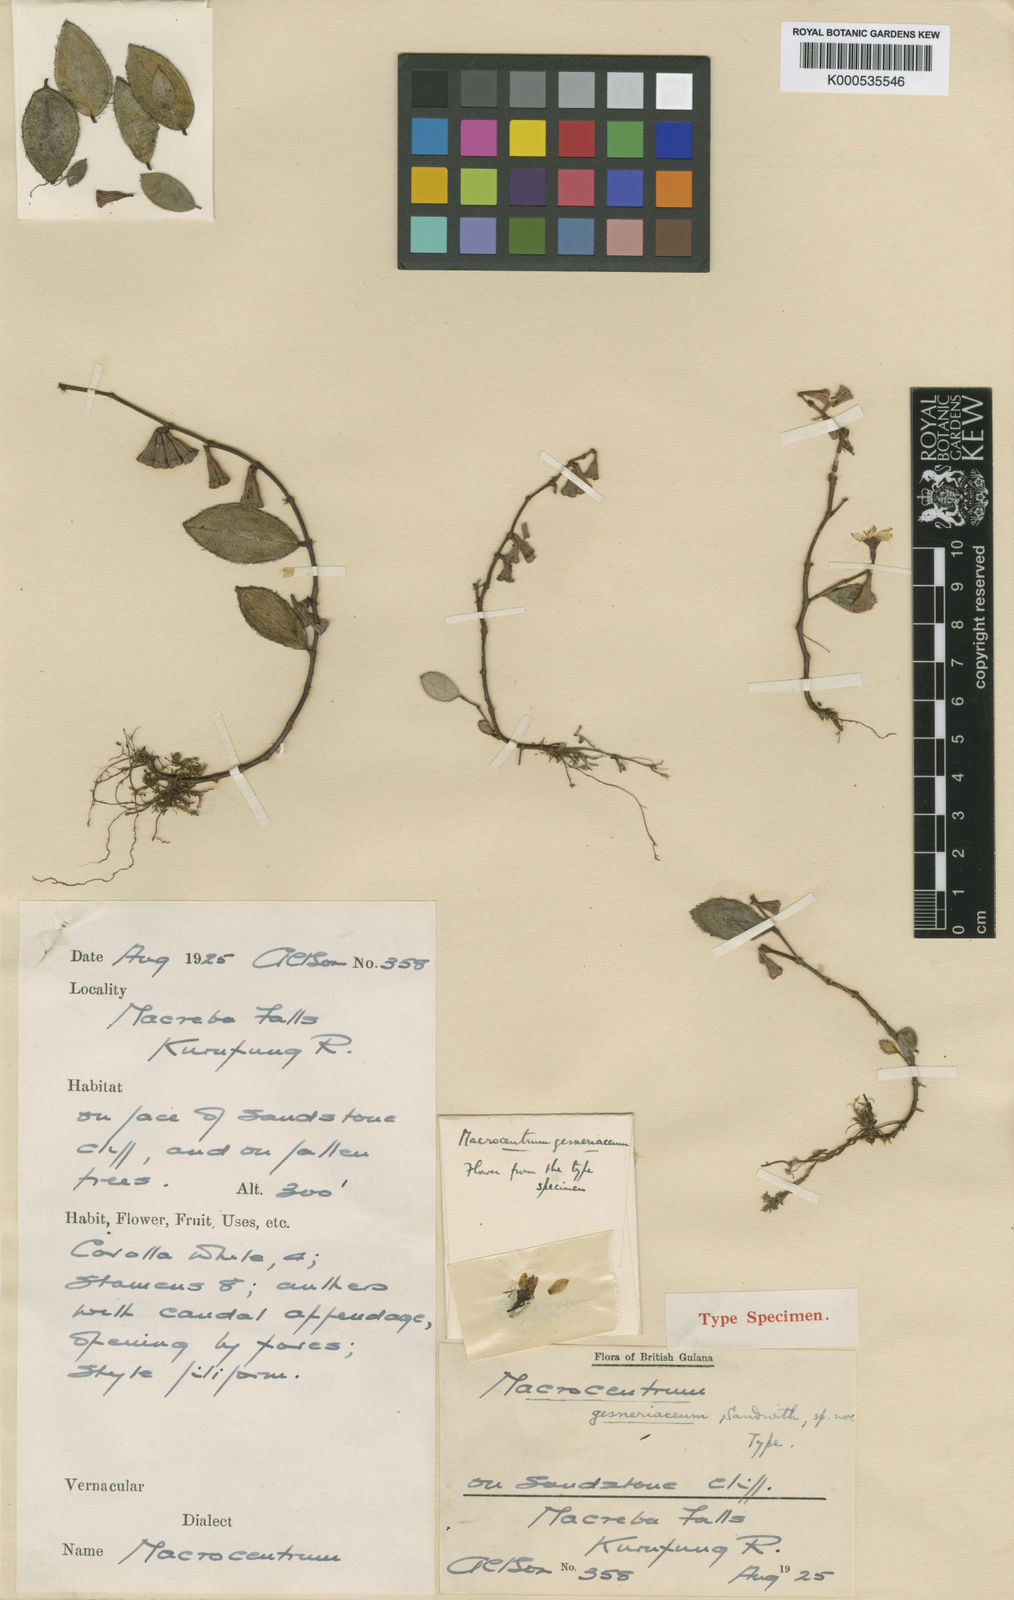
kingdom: Plantae
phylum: Tracheophyta
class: Magnoliopsida
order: Myrtales
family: Melastomataceae
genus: Macrocentrum
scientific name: Macrocentrum gesneriaceum
